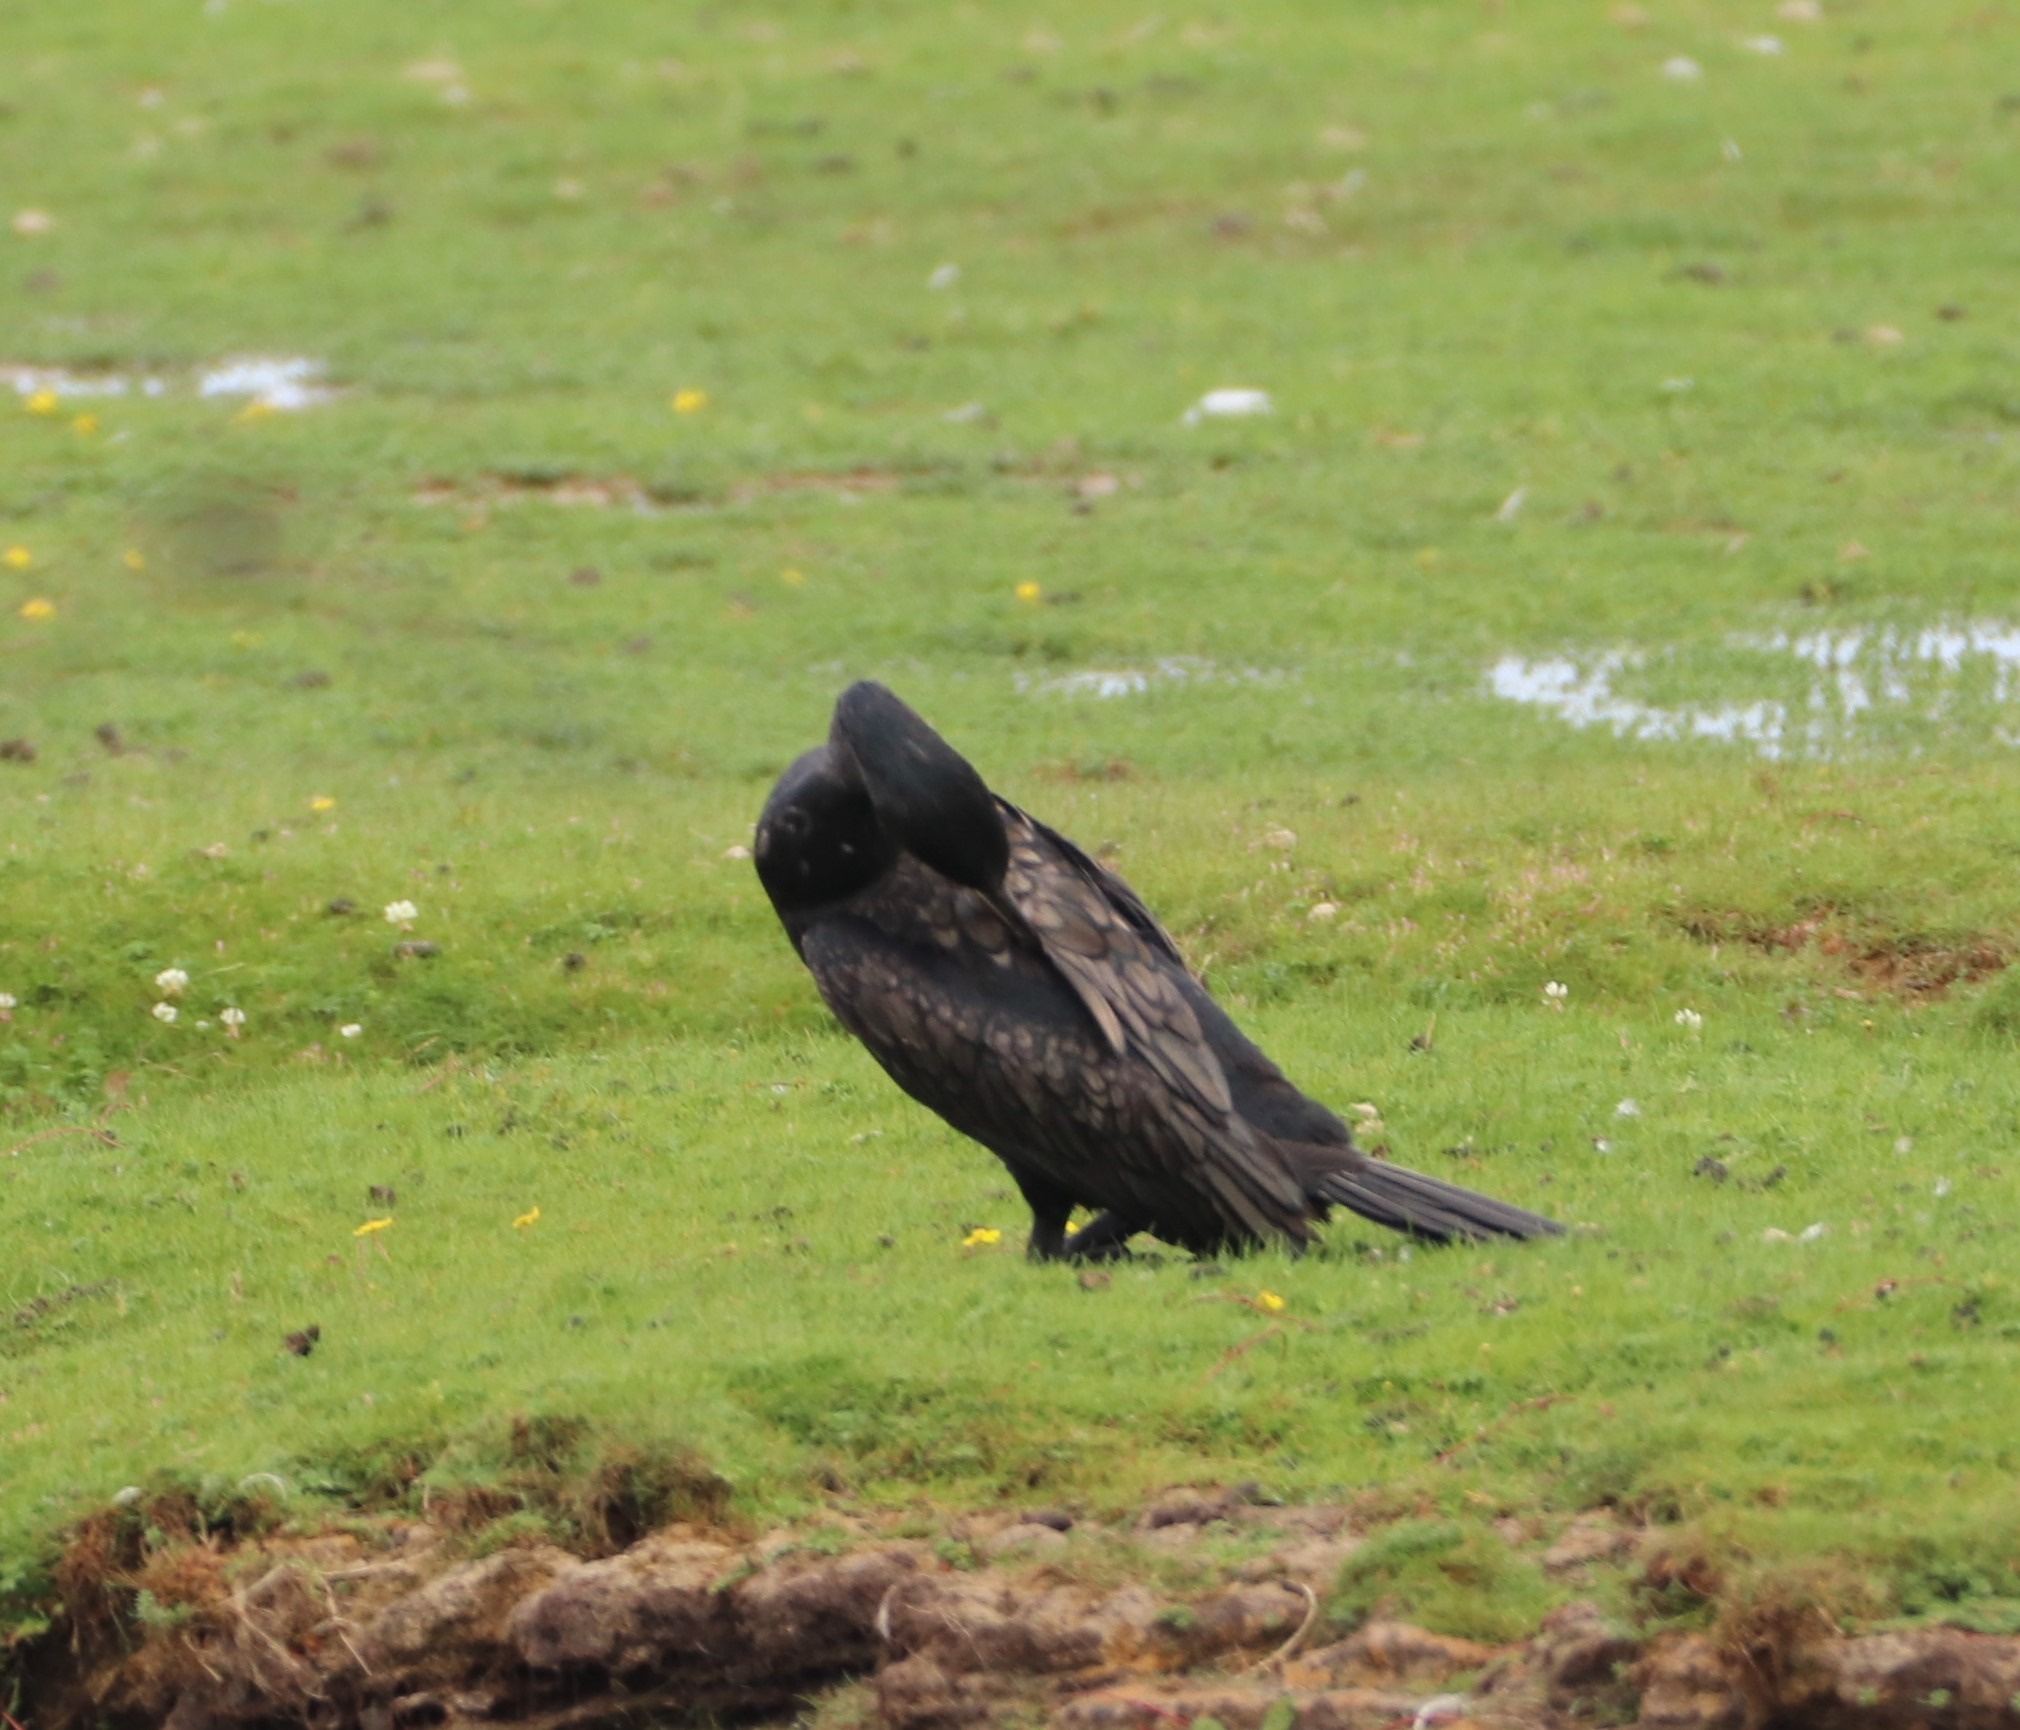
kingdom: Animalia
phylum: Chordata
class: Aves
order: Suliformes
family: Phalacrocoracidae
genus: Phalacrocorax
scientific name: Phalacrocorax carbo
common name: Skarv
